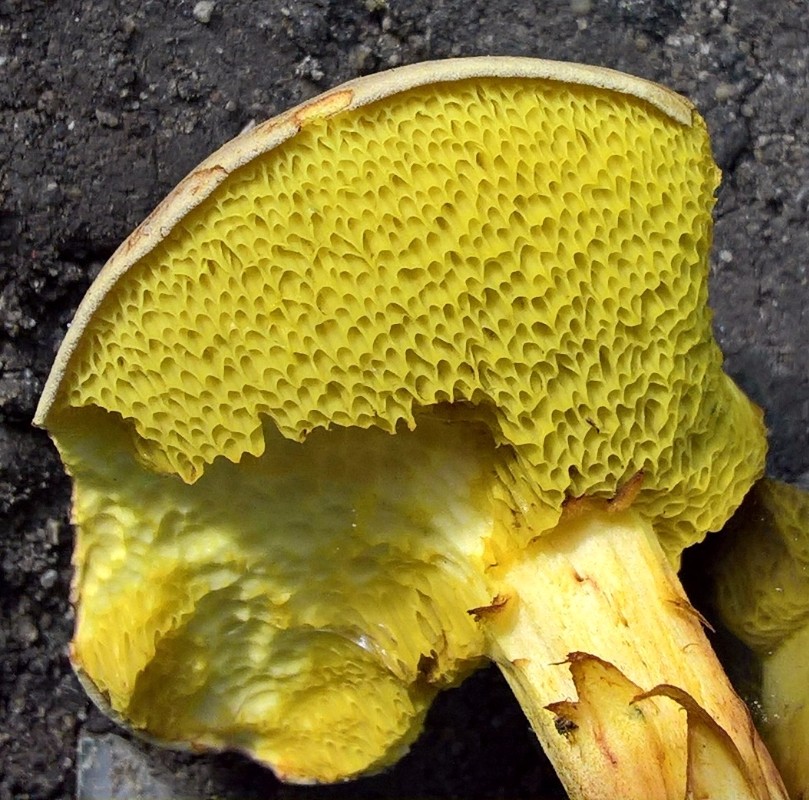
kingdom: Fungi
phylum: Basidiomycota
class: Agaricomycetes
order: Boletales
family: Boletaceae
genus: Xerocomus
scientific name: Xerocomus
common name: filtrørhat
